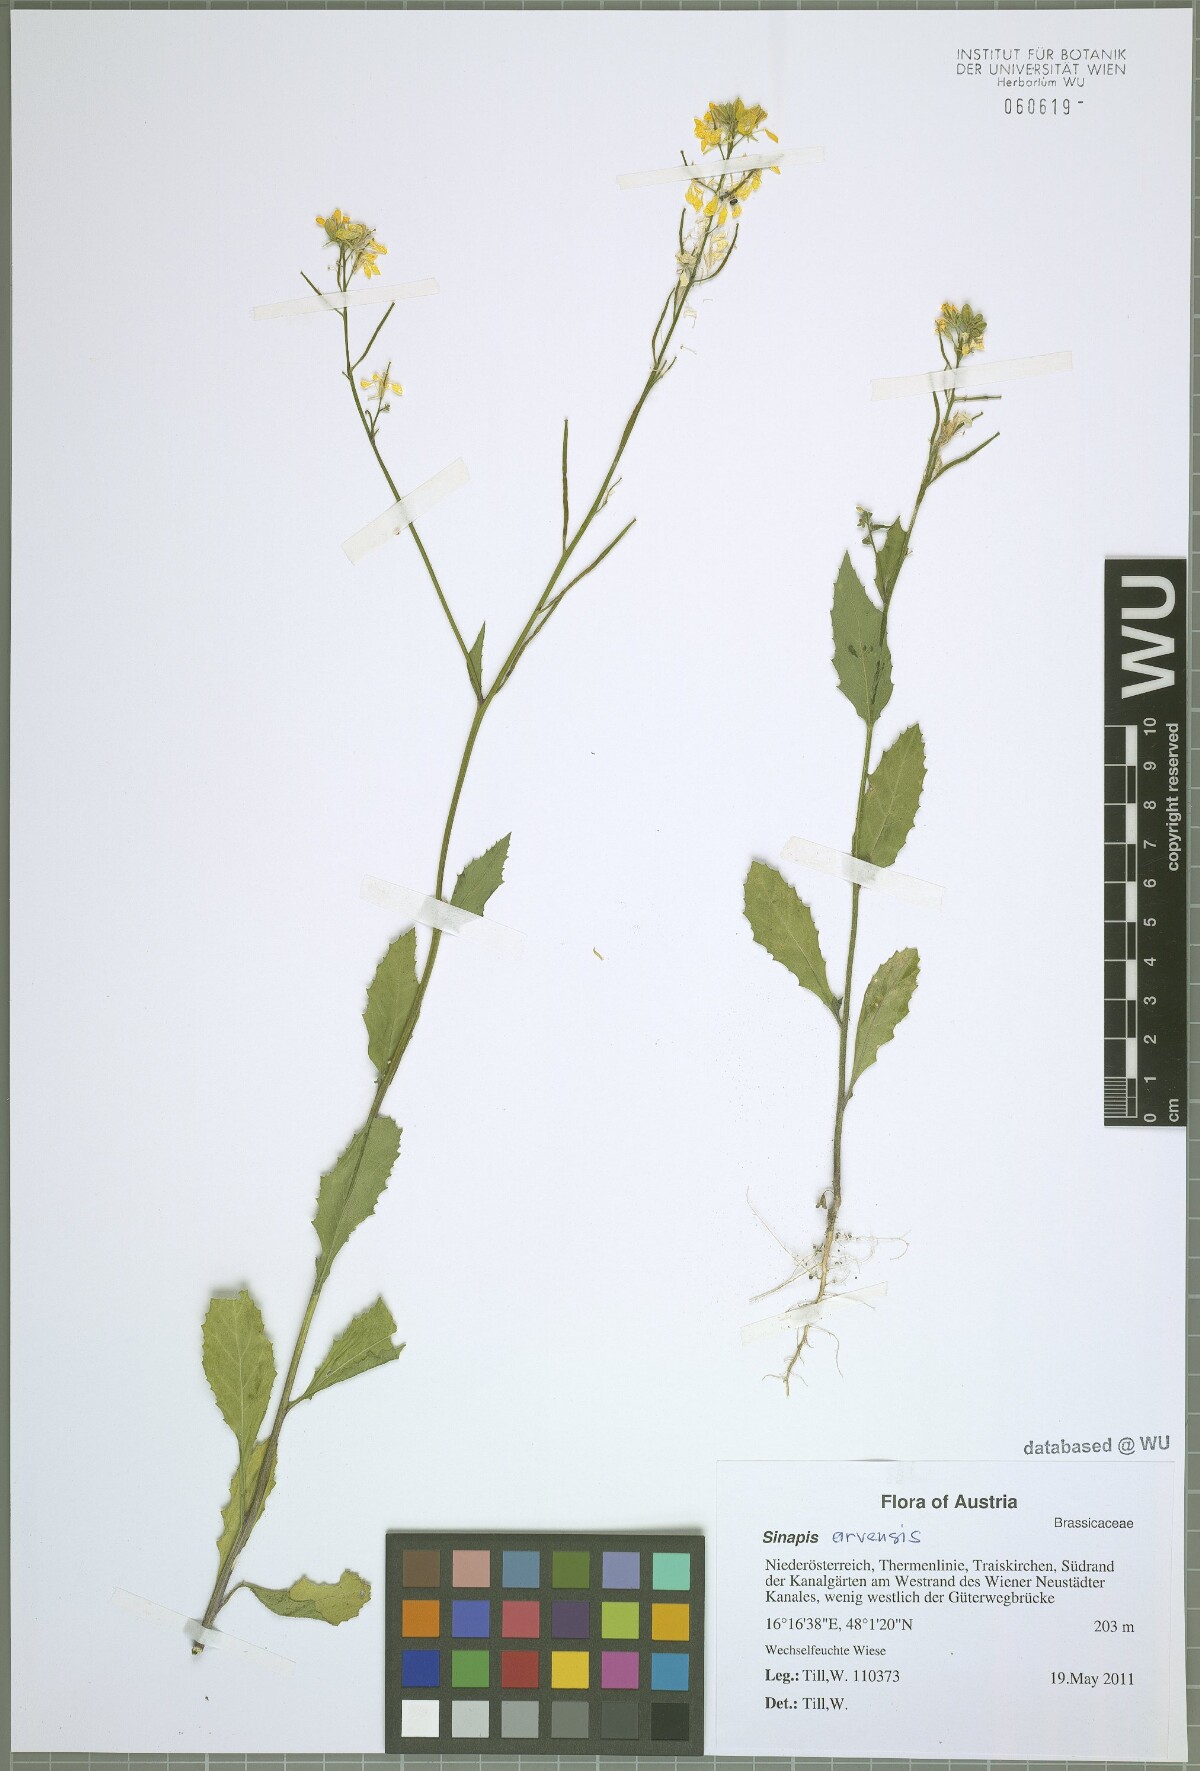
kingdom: Plantae
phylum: Tracheophyta
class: Magnoliopsida
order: Brassicales
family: Brassicaceae
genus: Sinapis
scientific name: Sinapis arvensis
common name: Charlock
